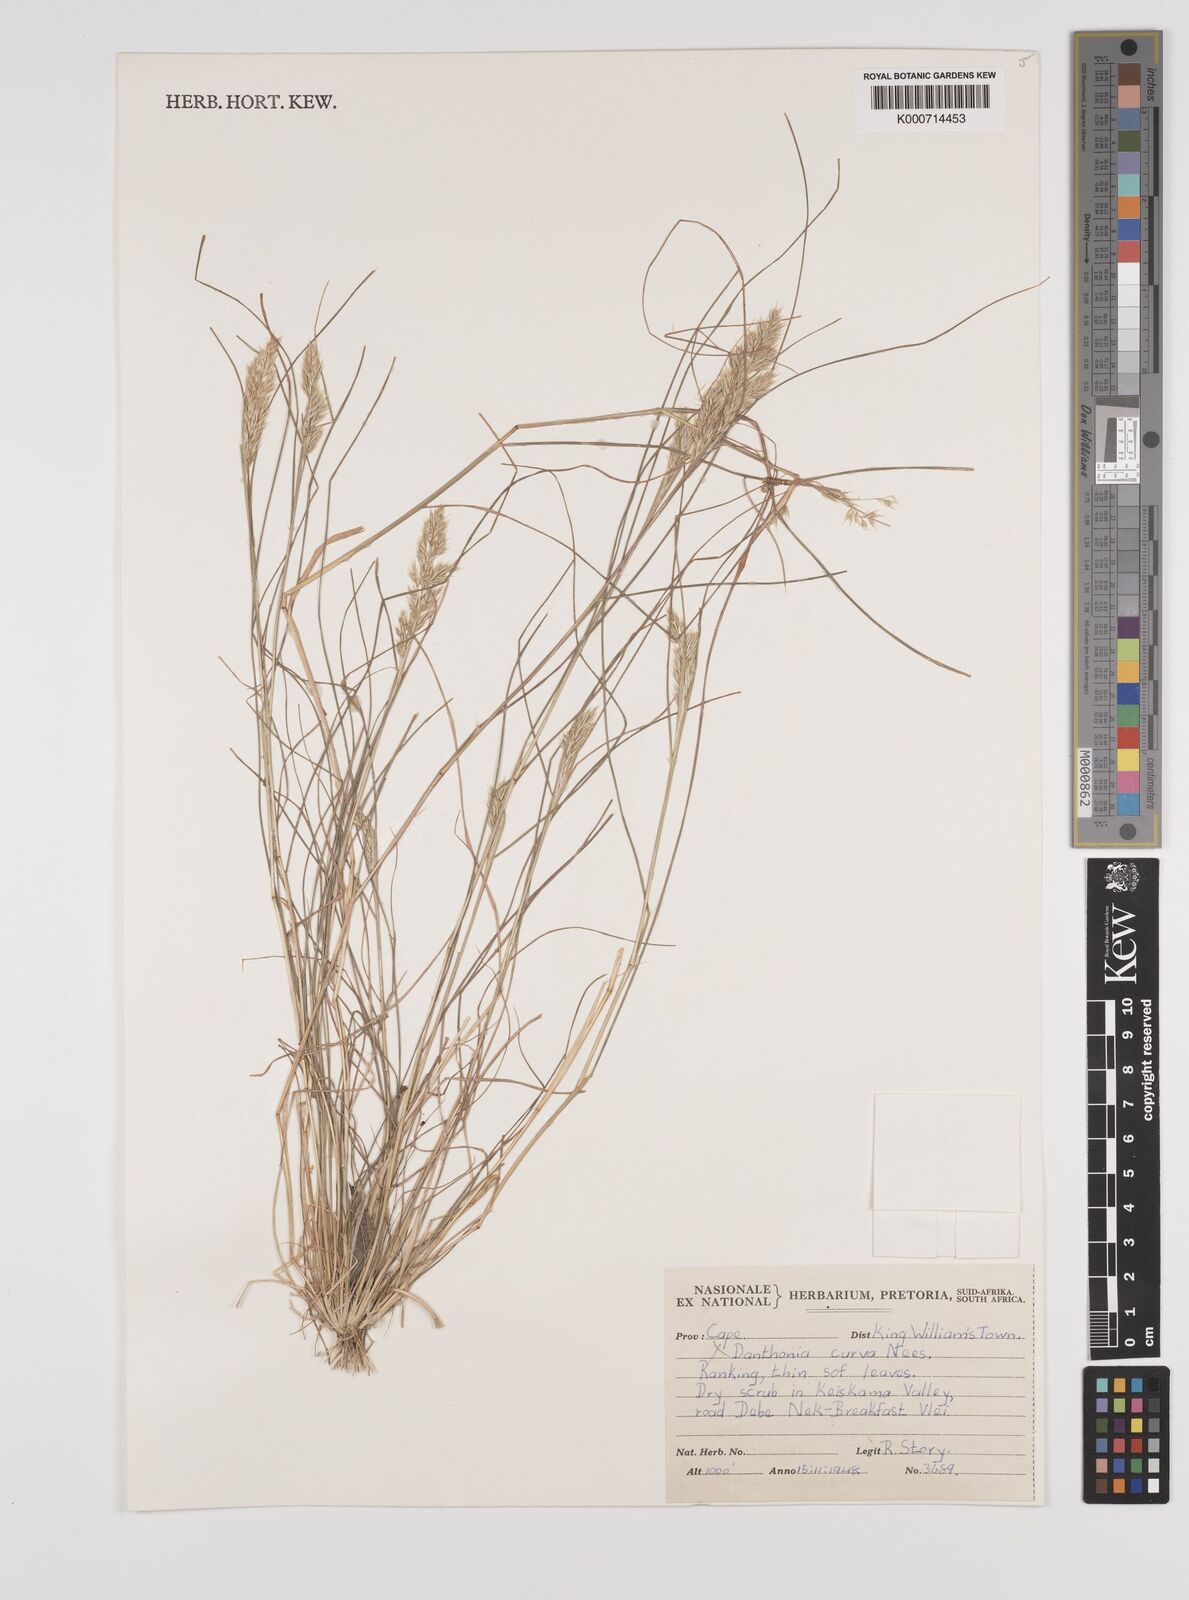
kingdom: Plantae
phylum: Tracheophyta
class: Liliopsida
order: Poales
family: Poaceae
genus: Rytidosperma
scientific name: Rytidosperma
